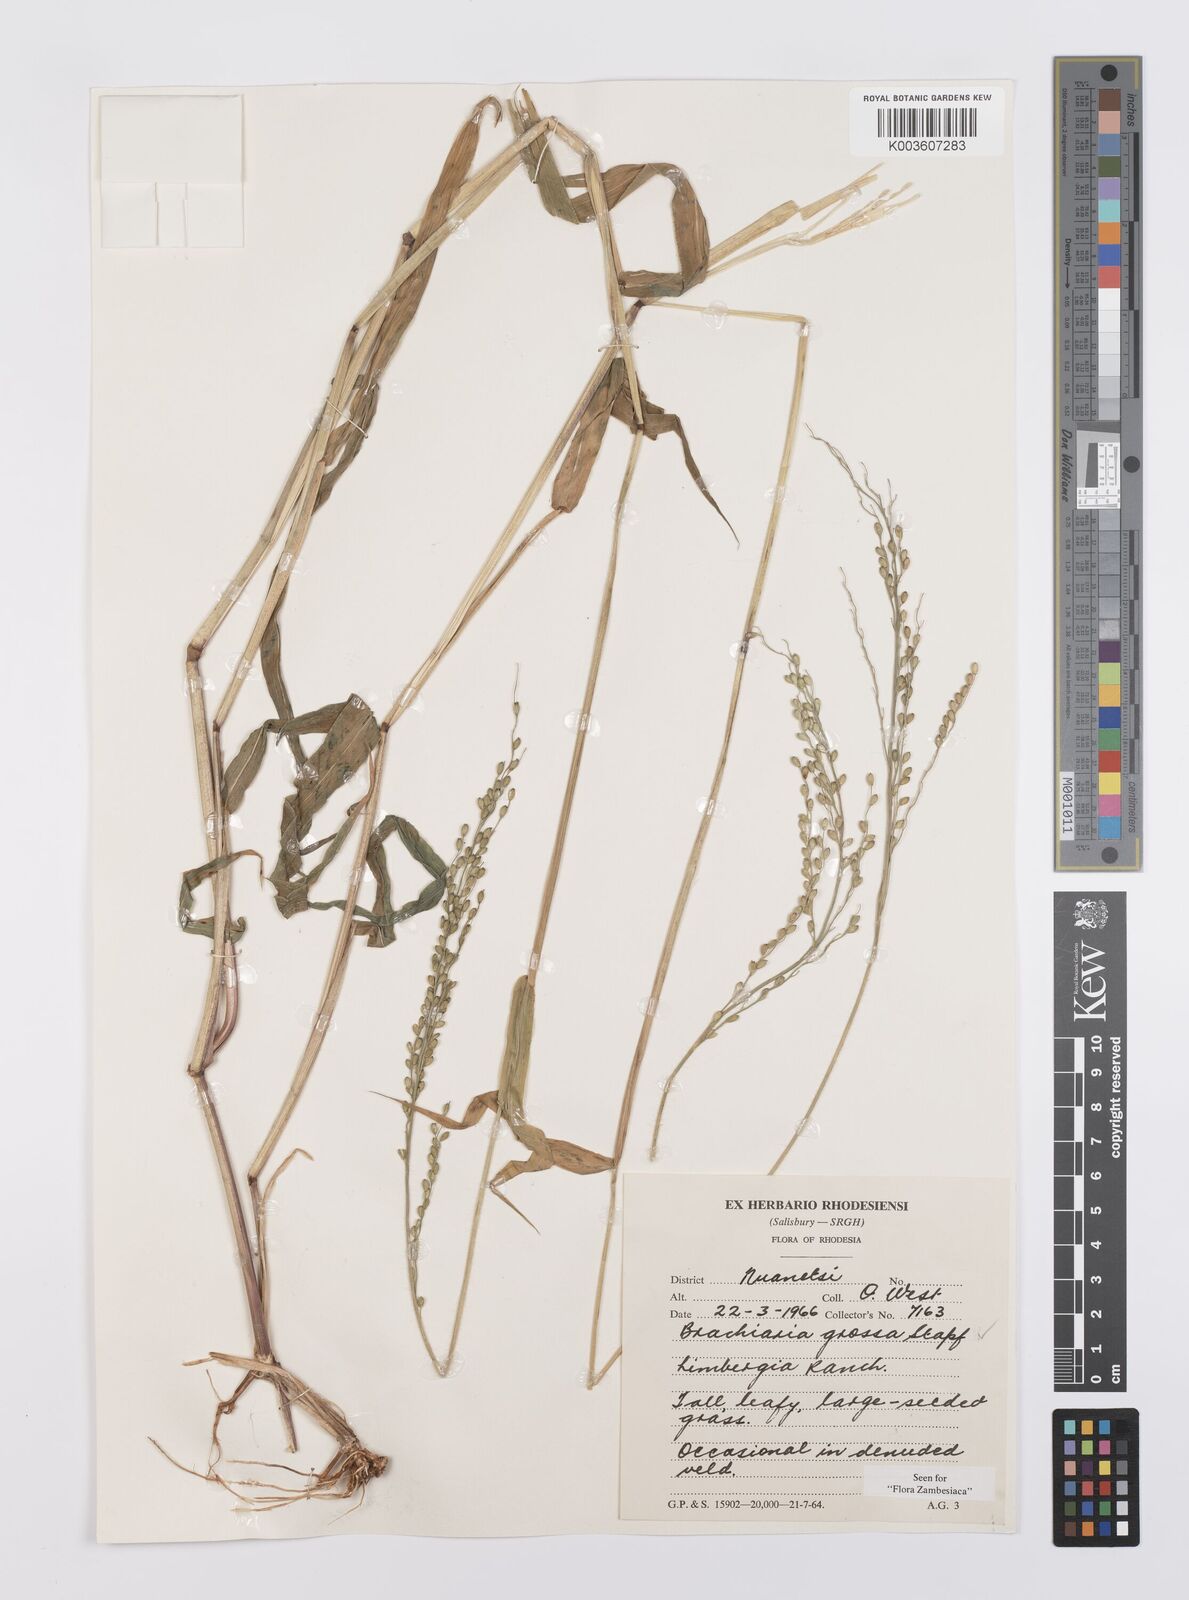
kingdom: Plantae
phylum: Tracheophyta
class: Liliopsida
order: Poales
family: Poaceae
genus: Urochloa
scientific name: Urochloa Brachiaria grossa
